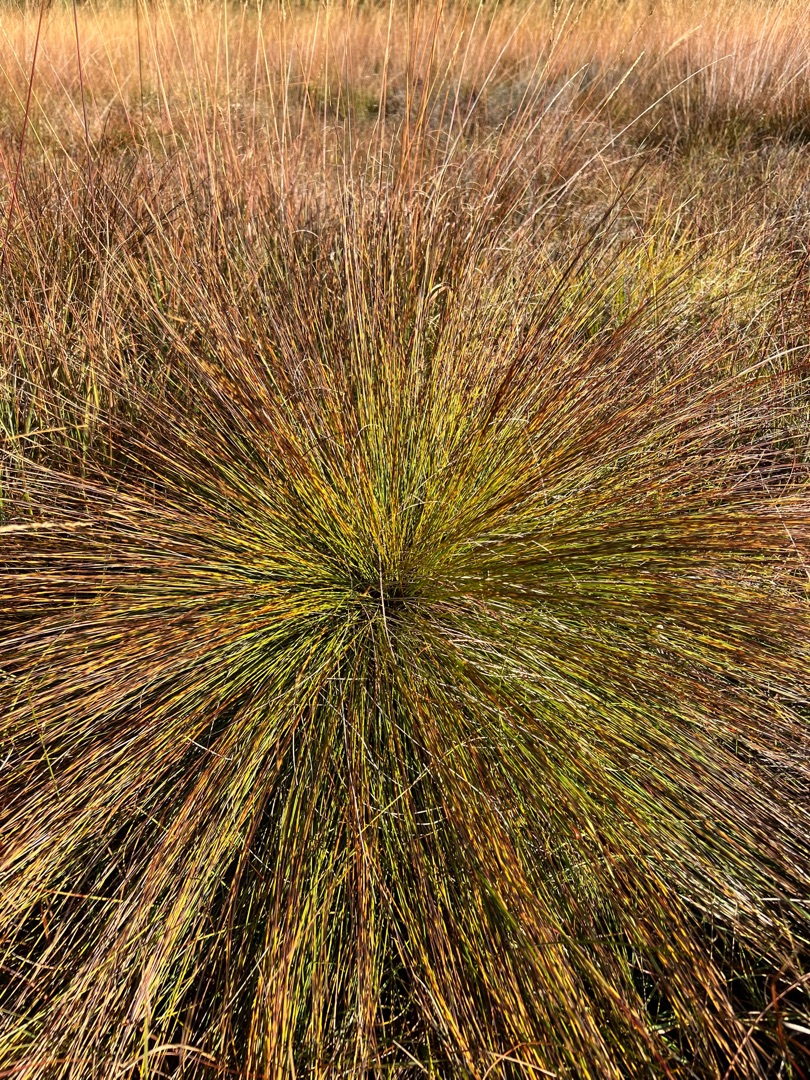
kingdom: Plantae
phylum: Tracheophyta
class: Liliopsida
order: Poales
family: Cyperaceae
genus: Trichophorum
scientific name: Trichophorum cespitosum
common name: Tuekogleaks
